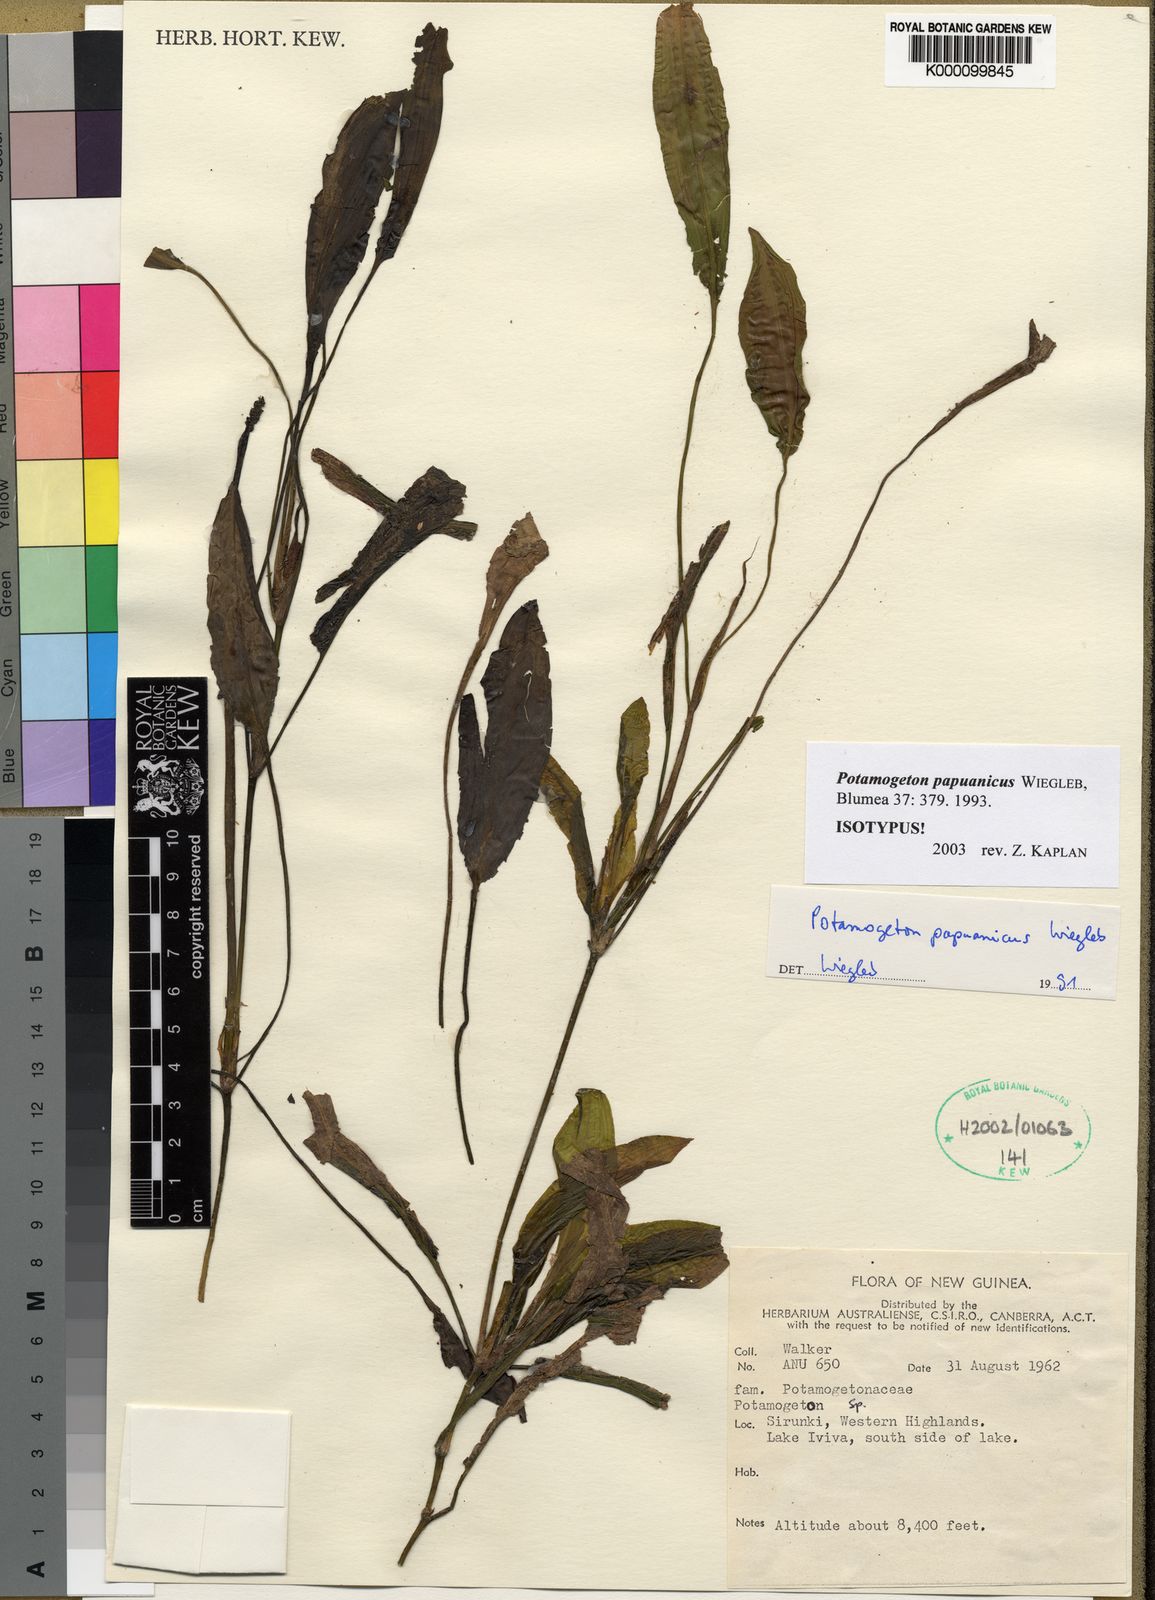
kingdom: Plantae
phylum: Tracheophyta
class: Liliopsida
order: Alismatales
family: Potamogetonaceae
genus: Potamogeton
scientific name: Potamogeton papuanicus
